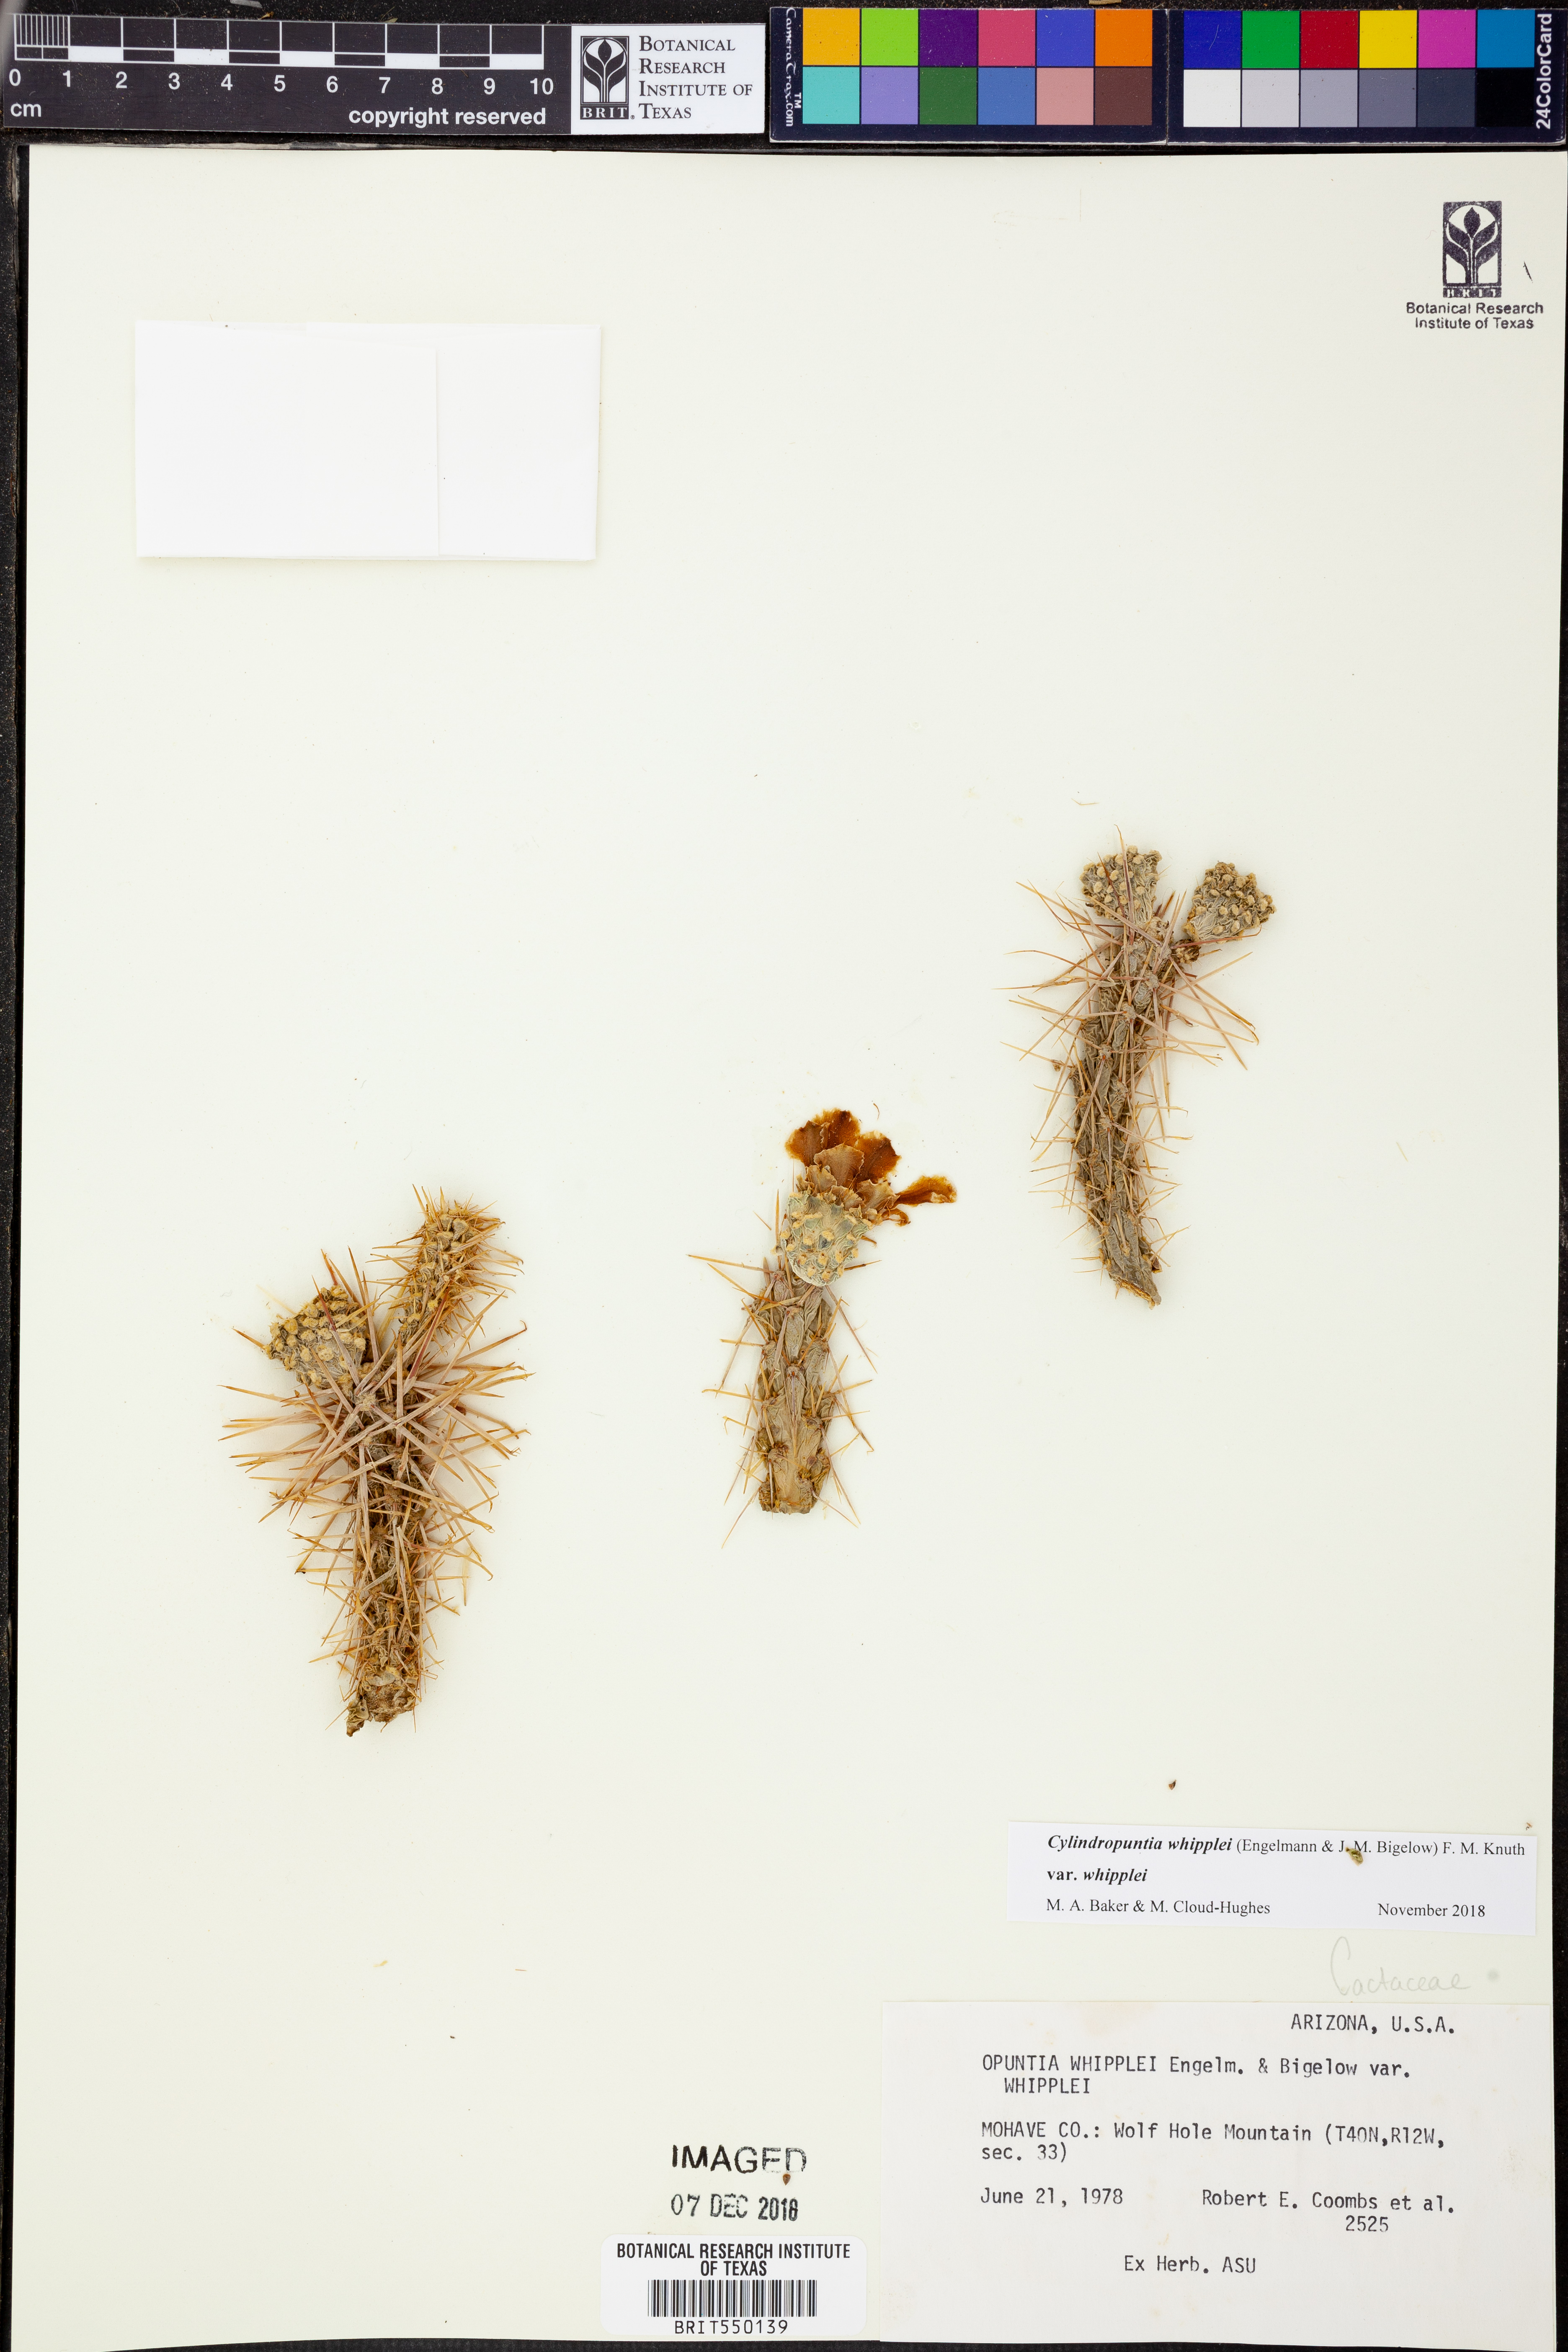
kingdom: Plantae
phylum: Tracheophyta
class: Magnoliopsida
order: Caryophyllales
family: Cactaceae
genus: Cylindropuntia
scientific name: Cylindropuntia whipplei
